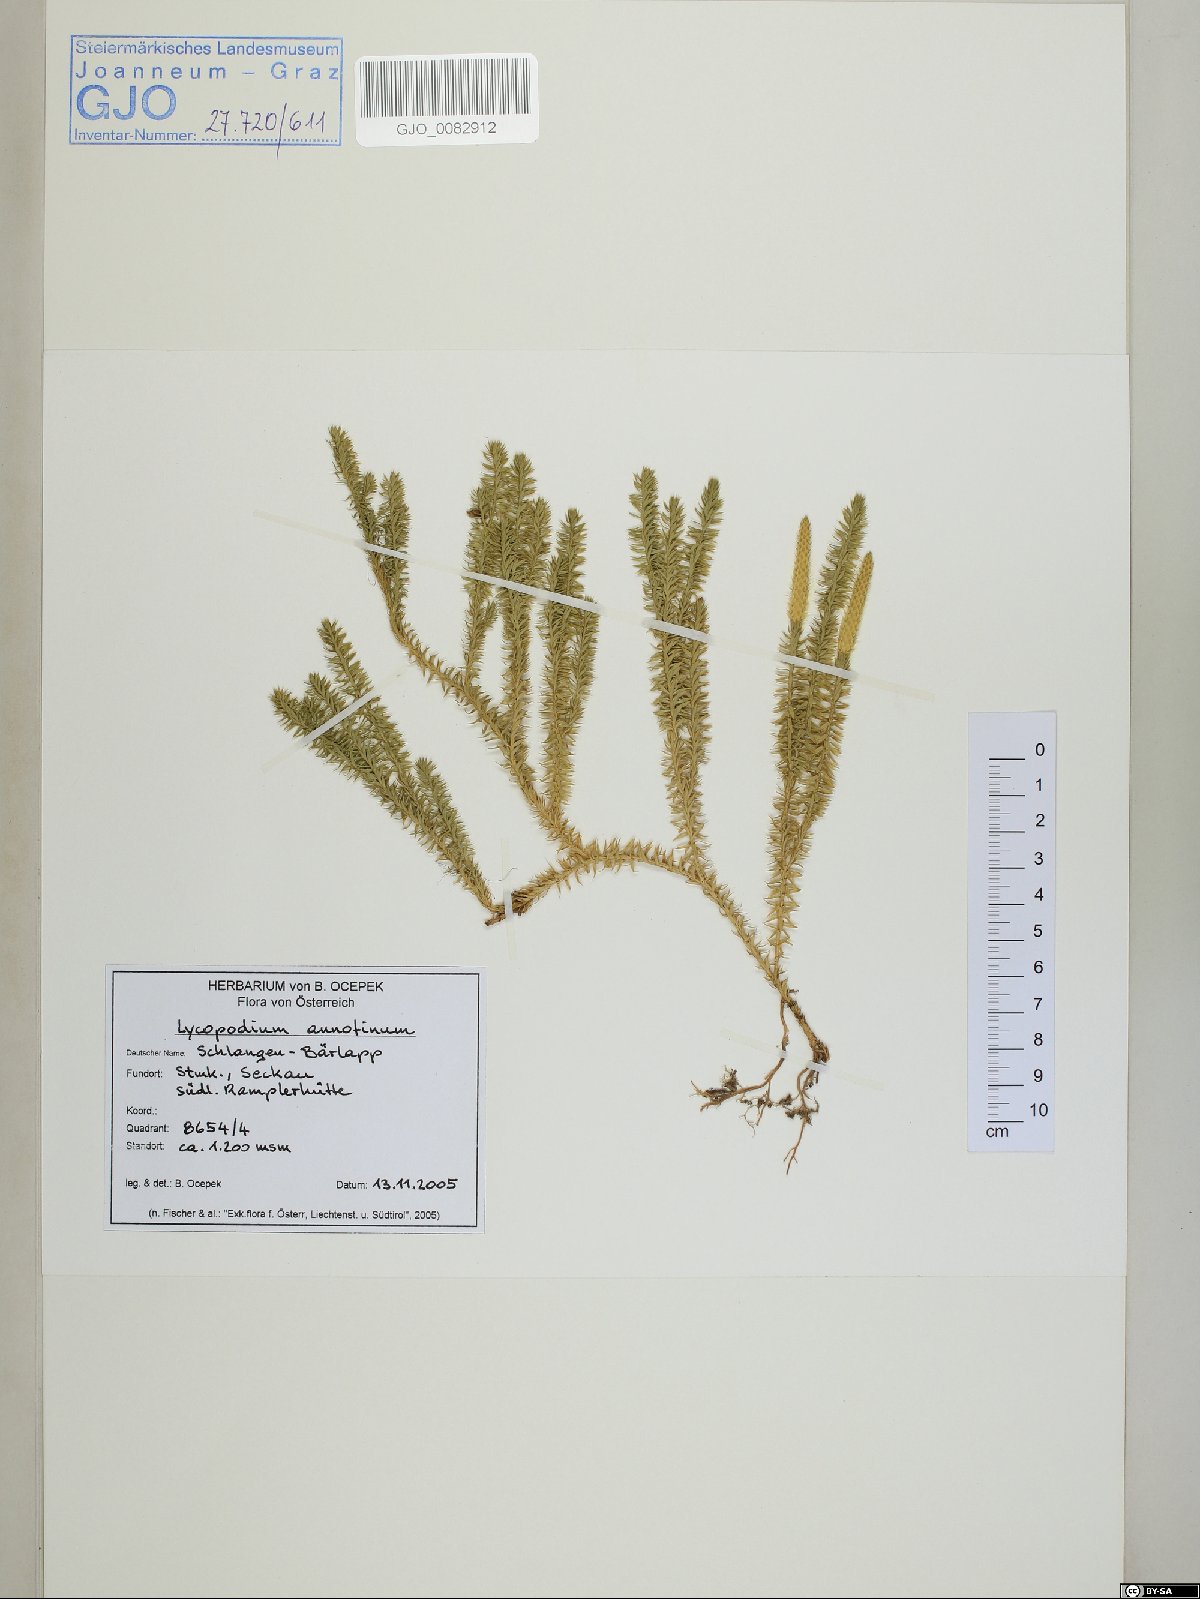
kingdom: Plantae
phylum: Tracheophyta
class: Lycopodiopsida
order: Lycopodiales
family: Lycopodiaceae
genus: Spinulum
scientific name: Spinulum annotinum
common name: Interrupted club-moss
